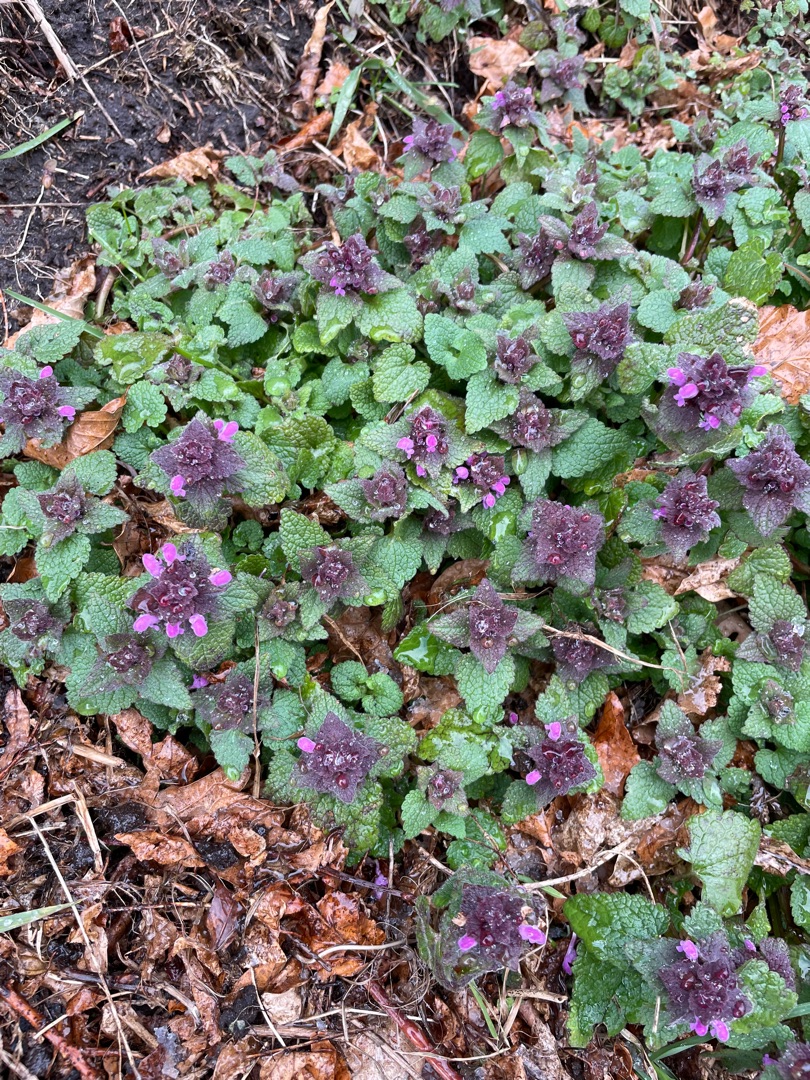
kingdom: Plantae
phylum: Tracheophyta
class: Magnoliopsida
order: Lamiales
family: Lamiaceae
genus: Lamium
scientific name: Lamium purpureum
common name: Rød tvetand
